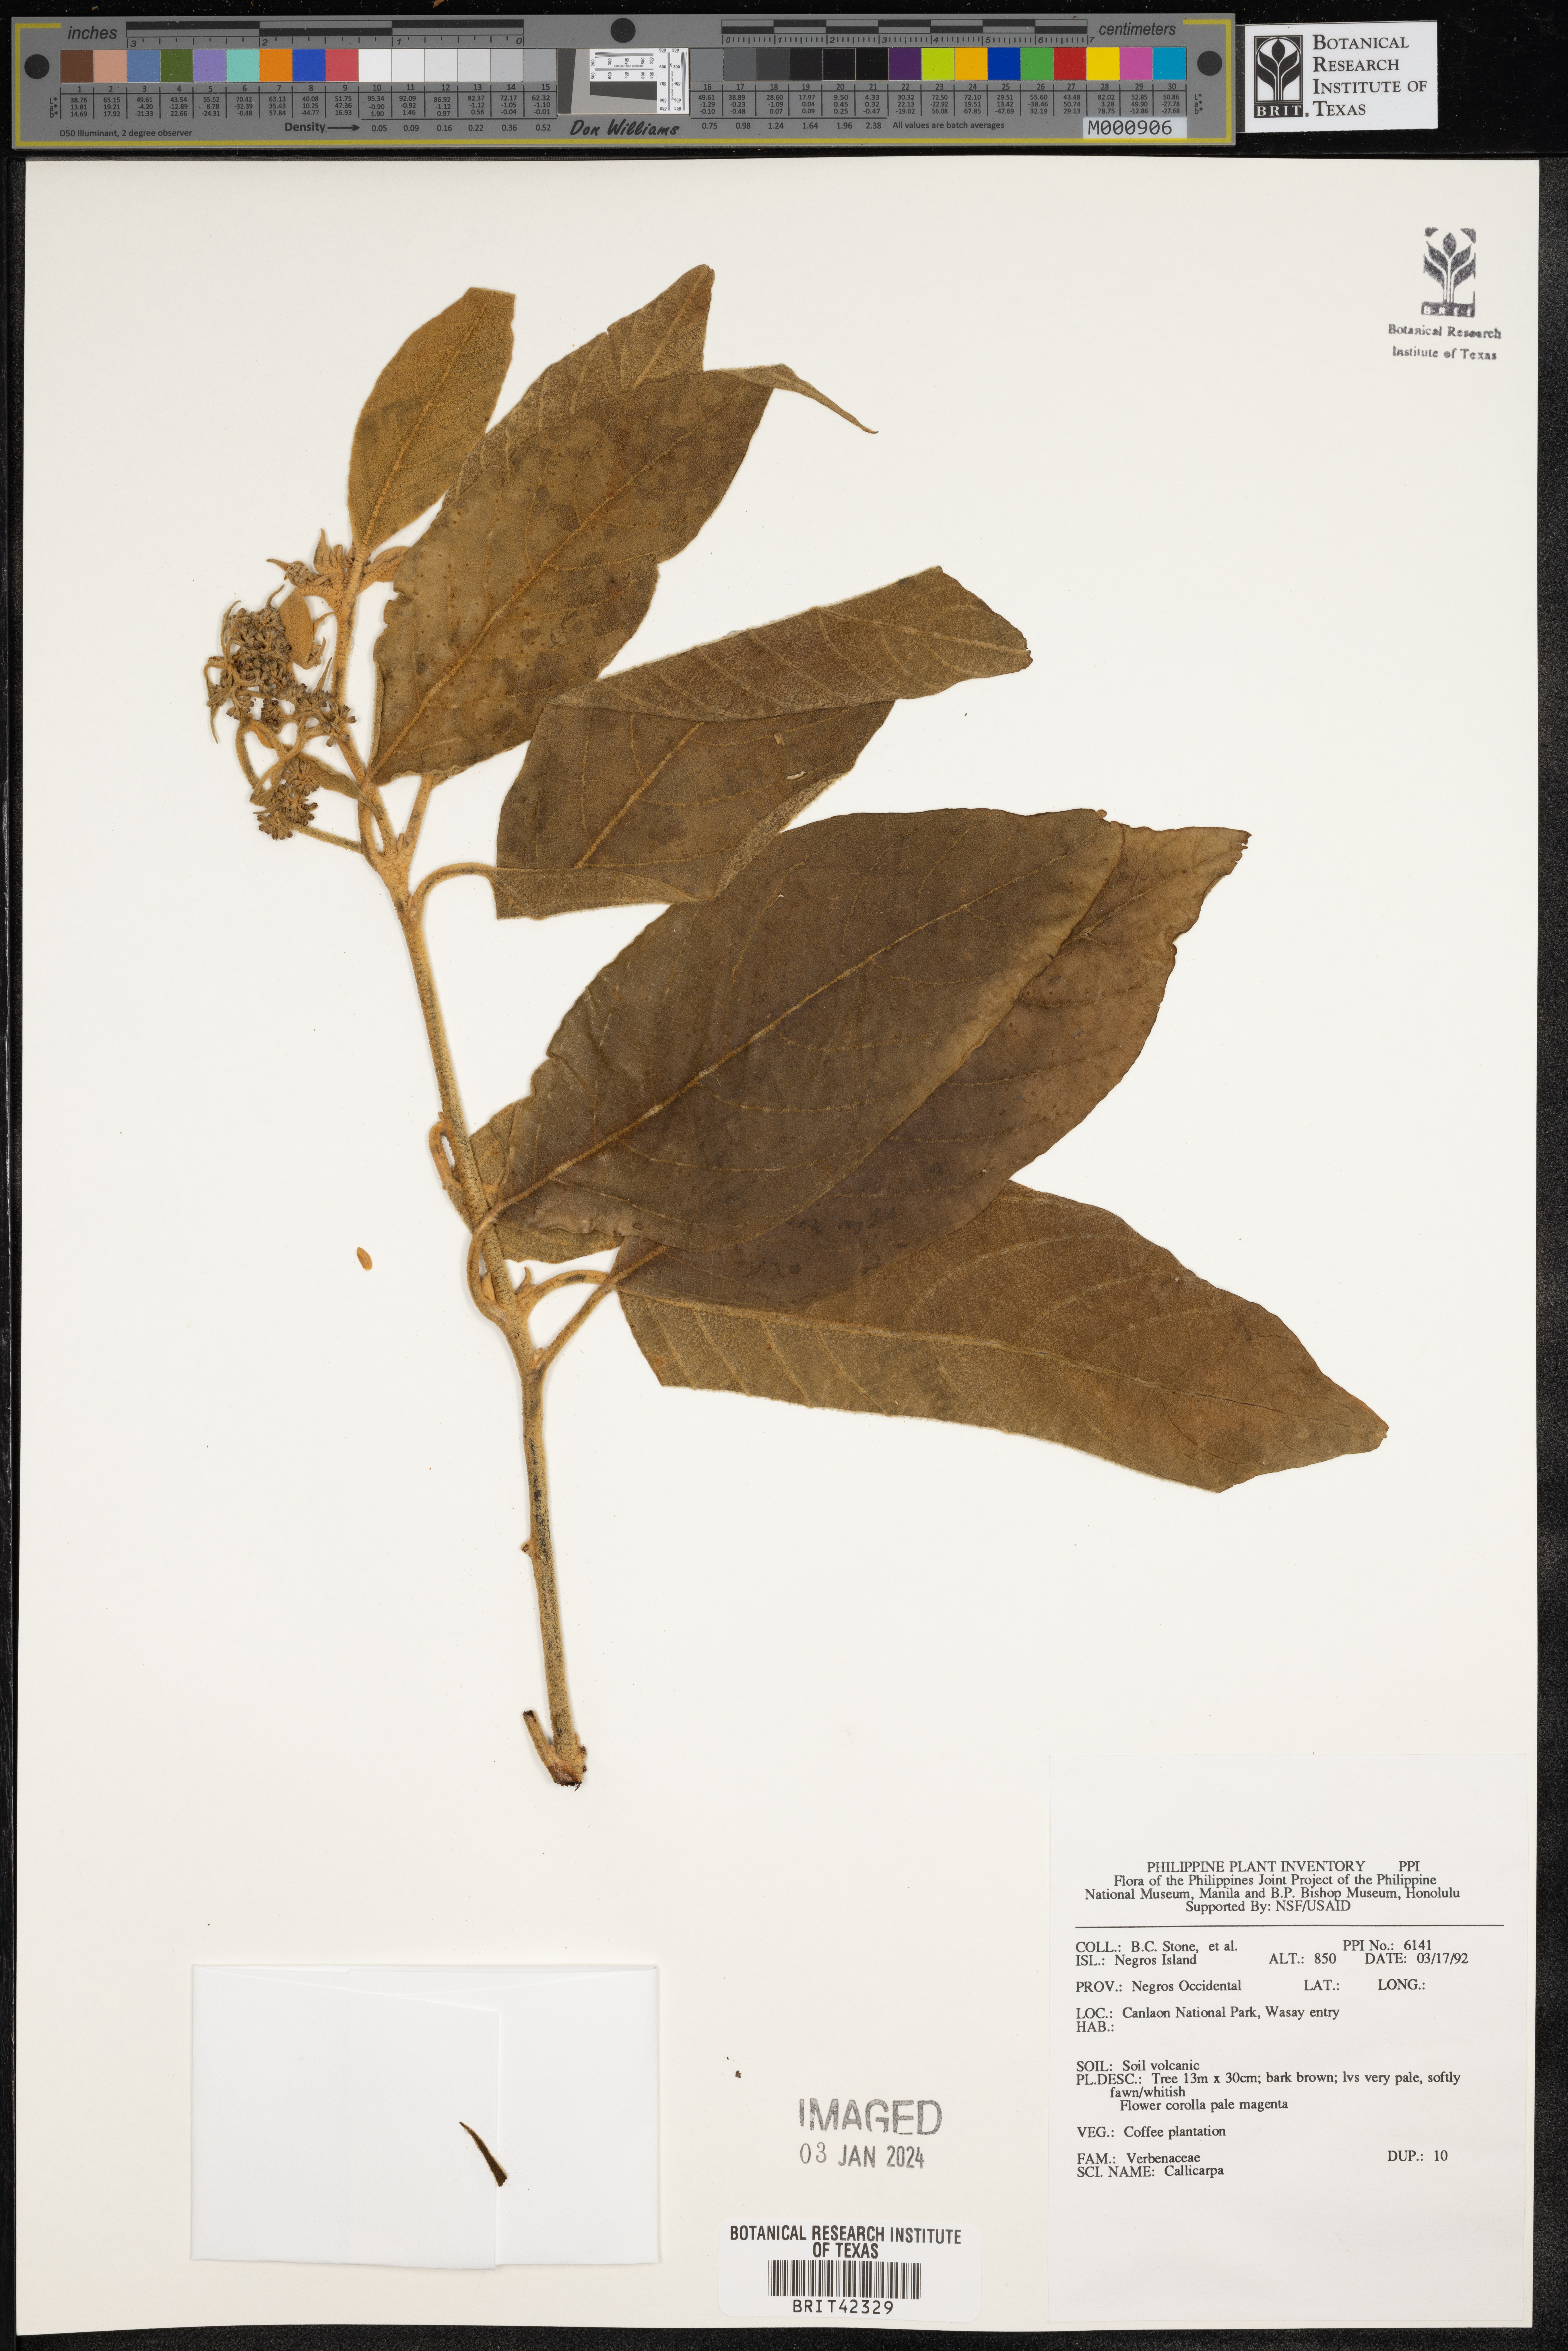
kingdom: Plantae
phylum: Tracheophyta
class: Magnoliopsida
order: Lamiales
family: Lamiaceae
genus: Callicarpa
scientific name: Callicarpa
